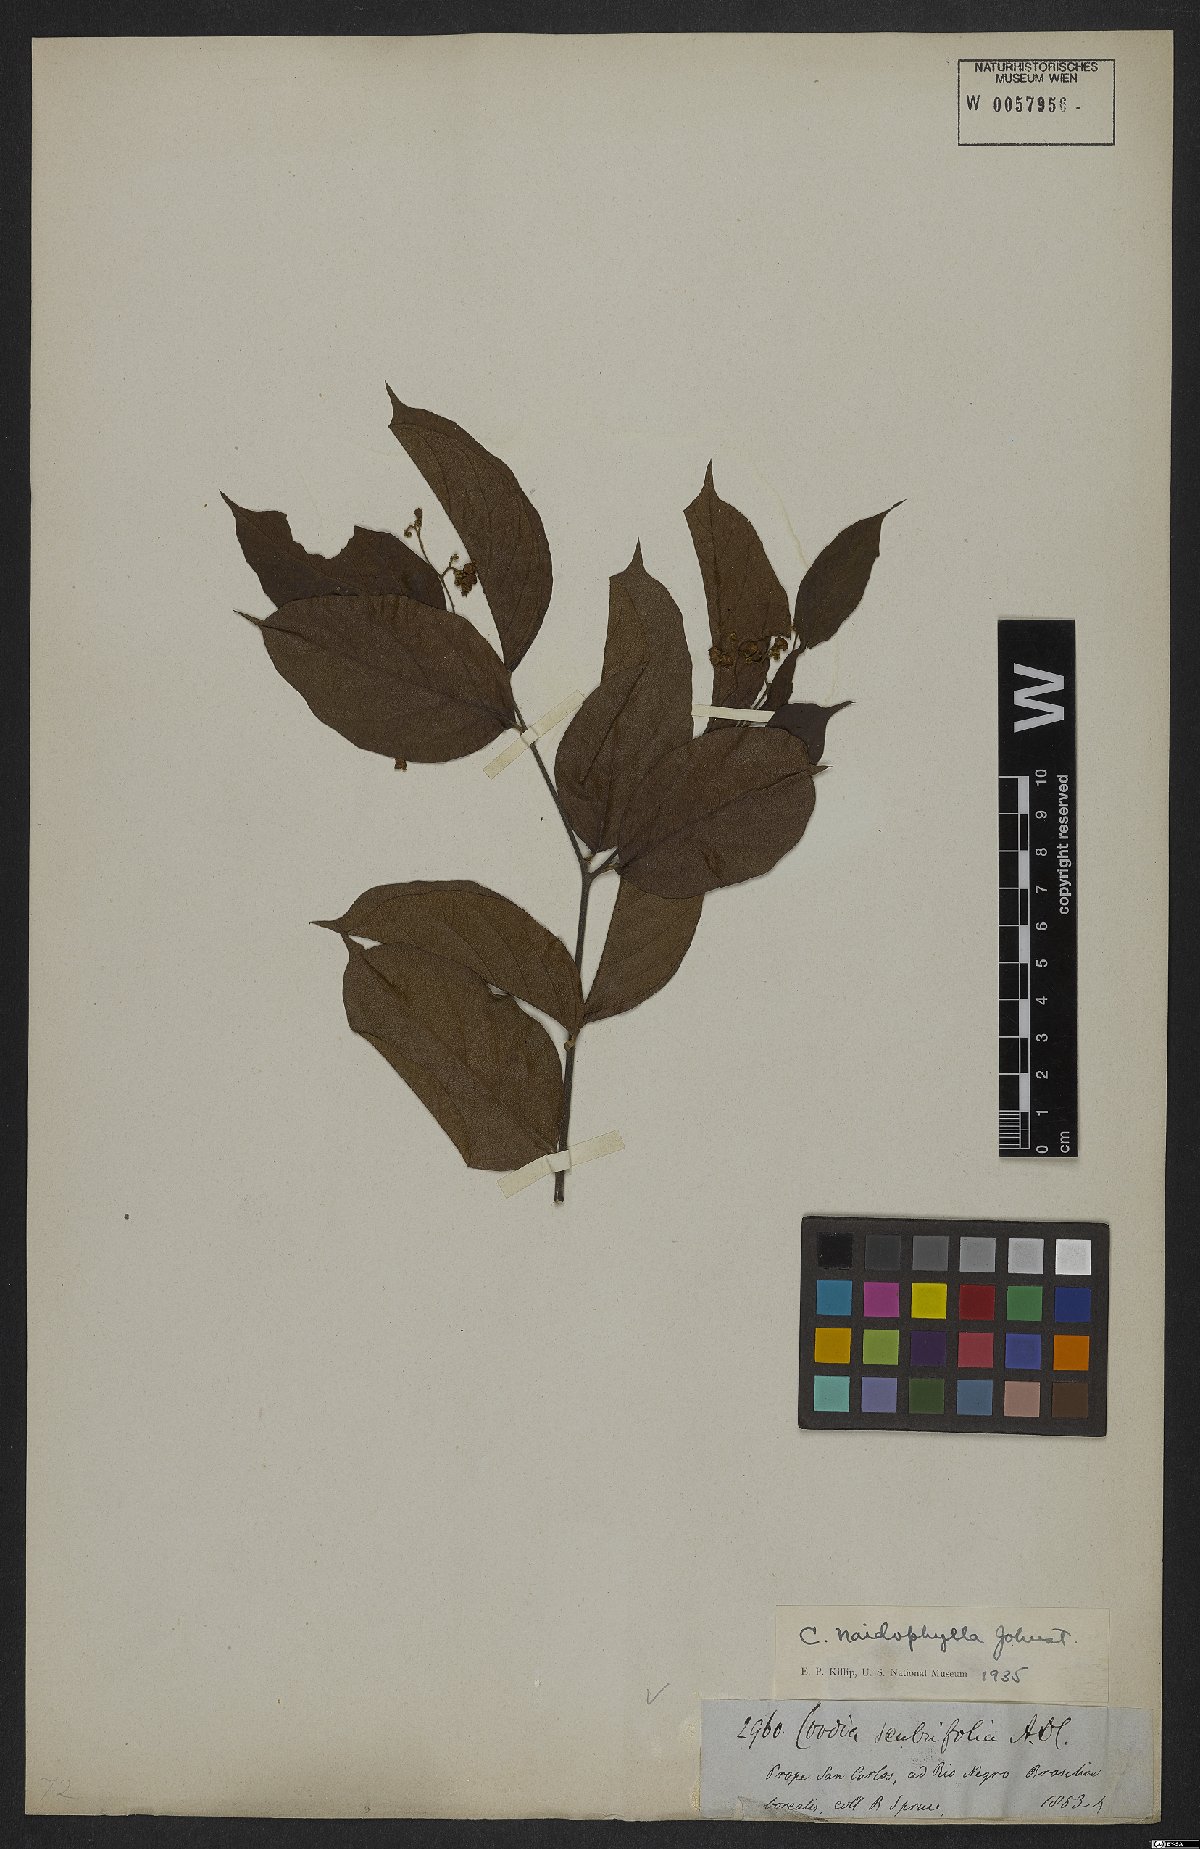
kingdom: Plantae
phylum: Tracheophyta
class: Magnoliopsida
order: Boraginales
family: Cordiaceae
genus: Cordia
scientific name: Cordia naidophila
